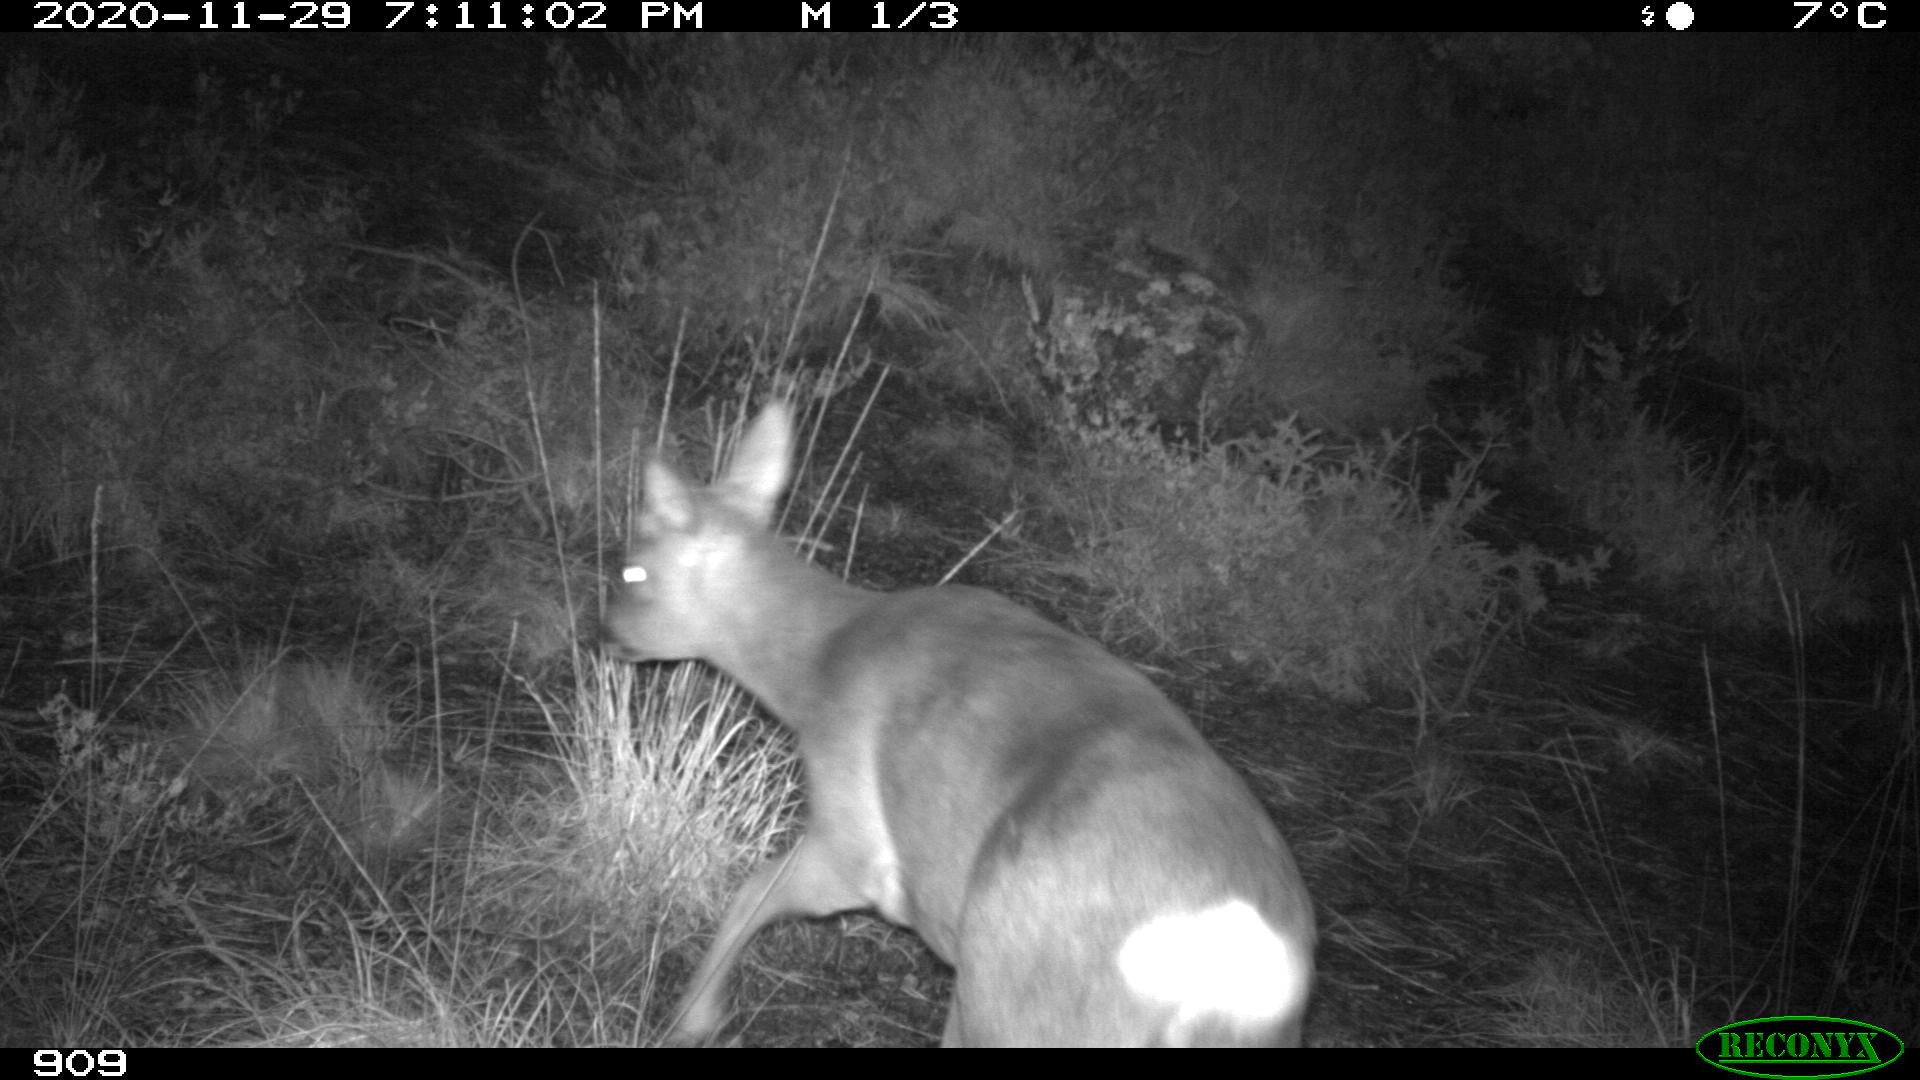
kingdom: Animalia
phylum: Chordata
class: Mammalia
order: Artiodactyla
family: Cervidae
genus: Capreolus
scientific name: Capreolus capreolus
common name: Western roe deer
